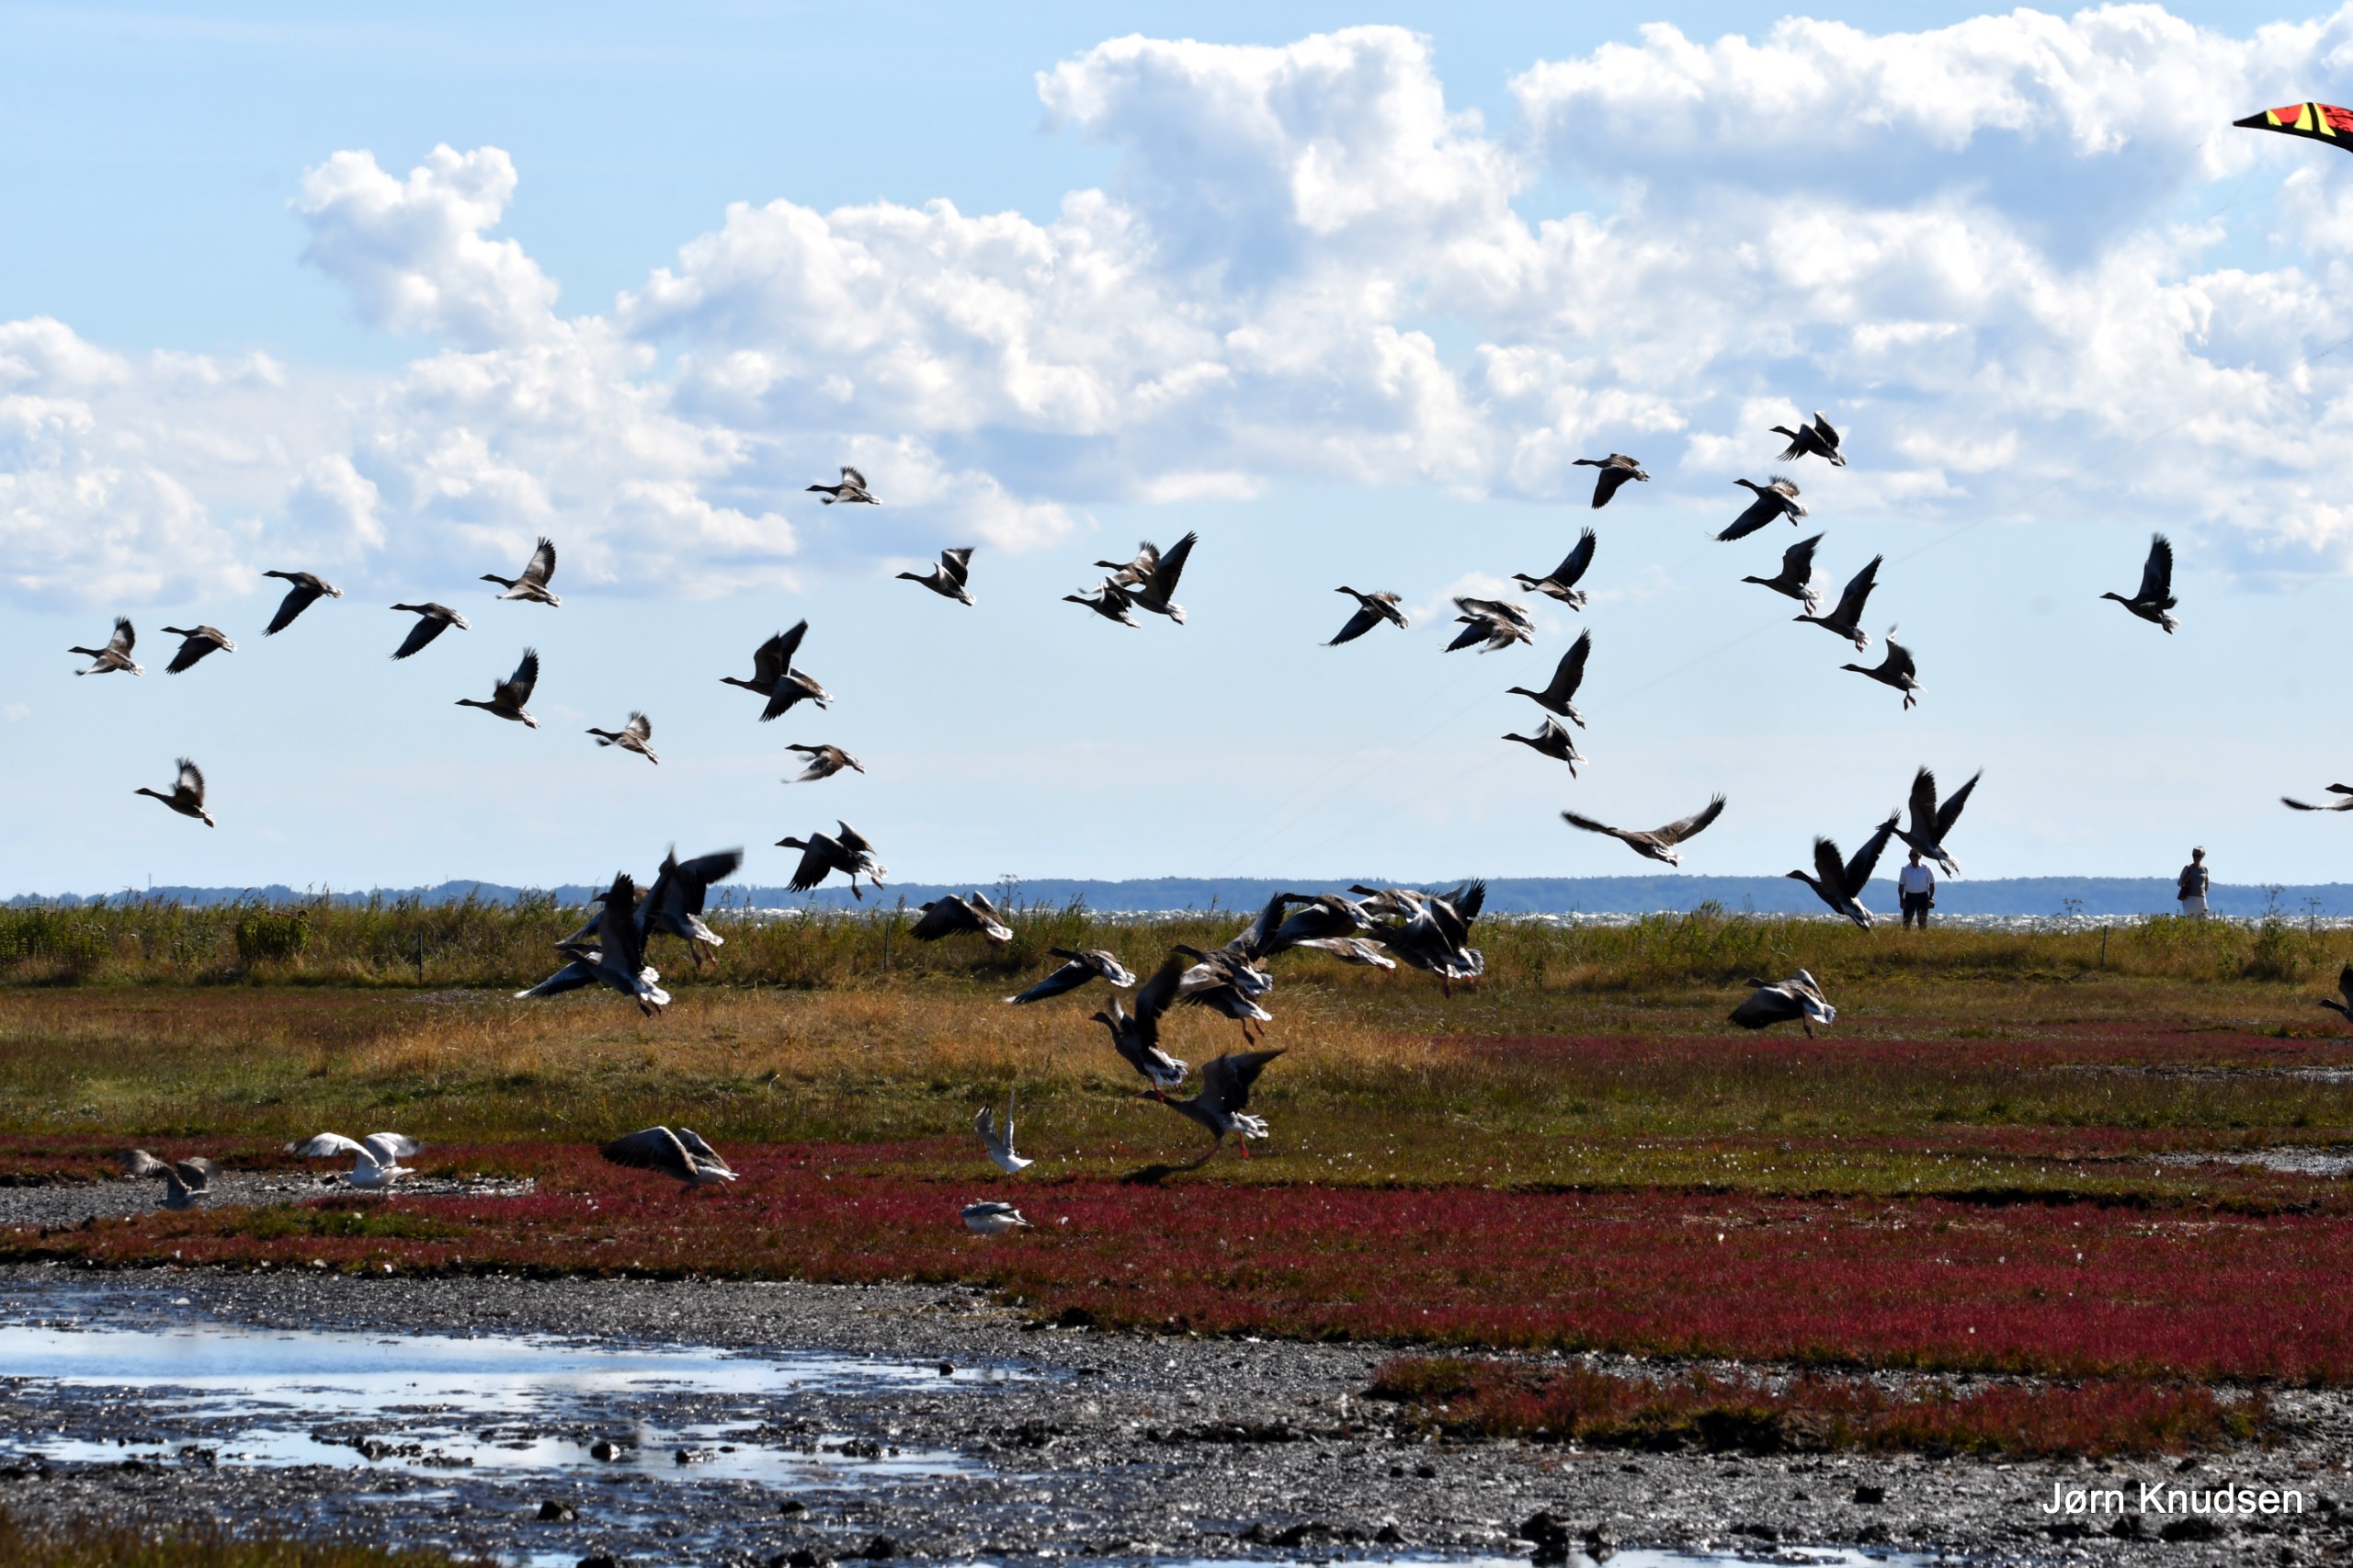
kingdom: Animalia
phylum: Chordata
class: Aves
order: Anseriformes
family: Anatidae
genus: Anser
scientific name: Anser anser
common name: Grågås
